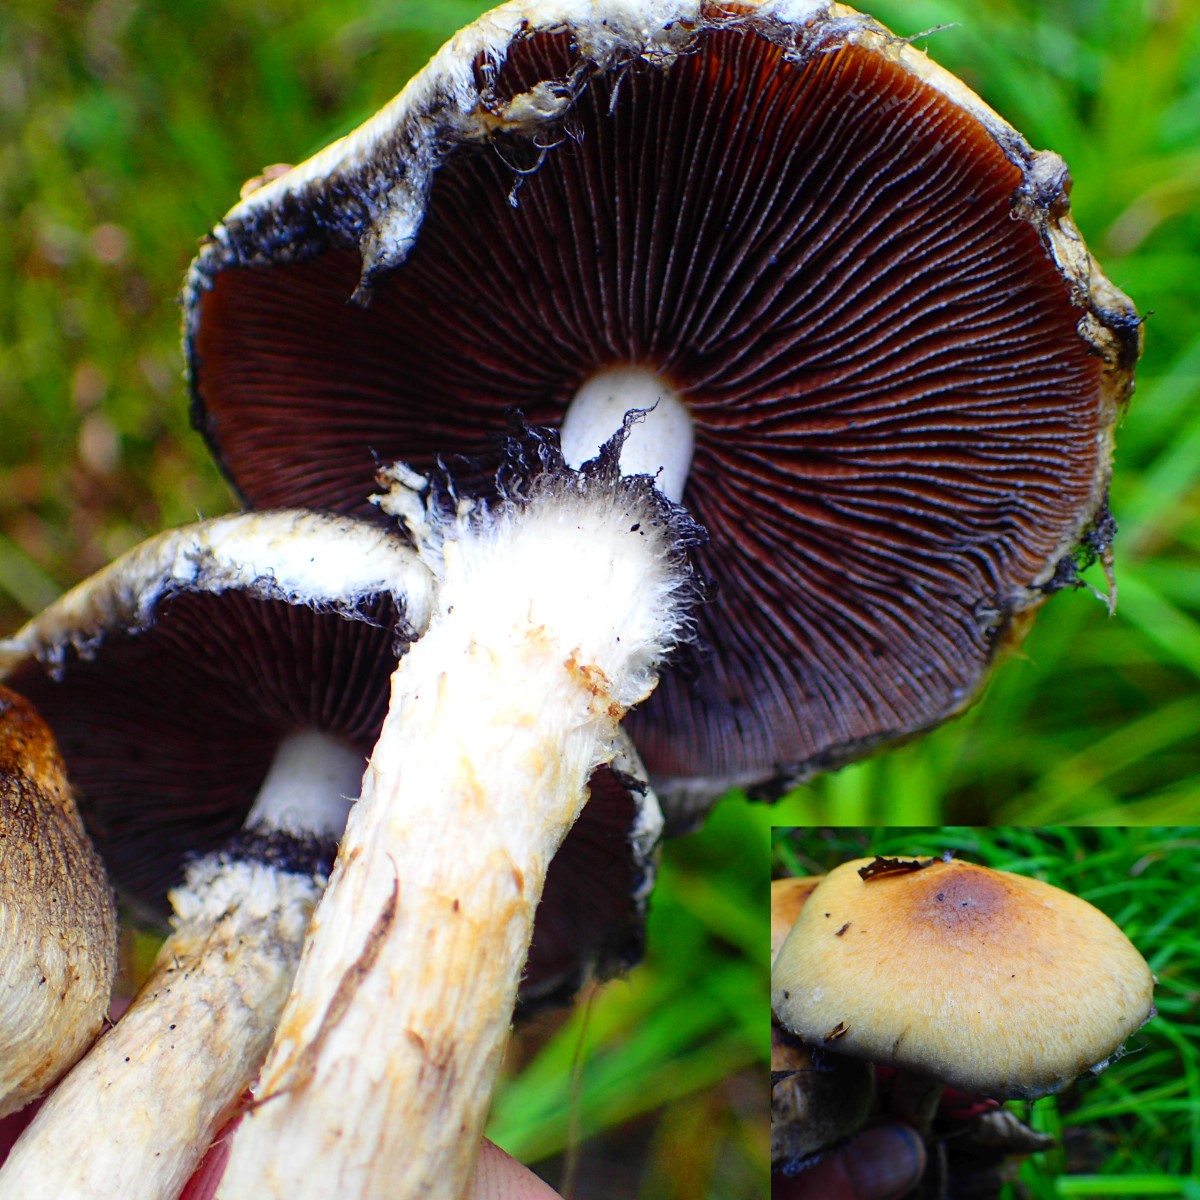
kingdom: Fungi
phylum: Basidiomycota
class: Agaricomycetes
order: Agaricales
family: Psathyrellaceae
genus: Lacrymaria
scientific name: Lacrymaria lacrymabunda
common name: grædende mørkhat
